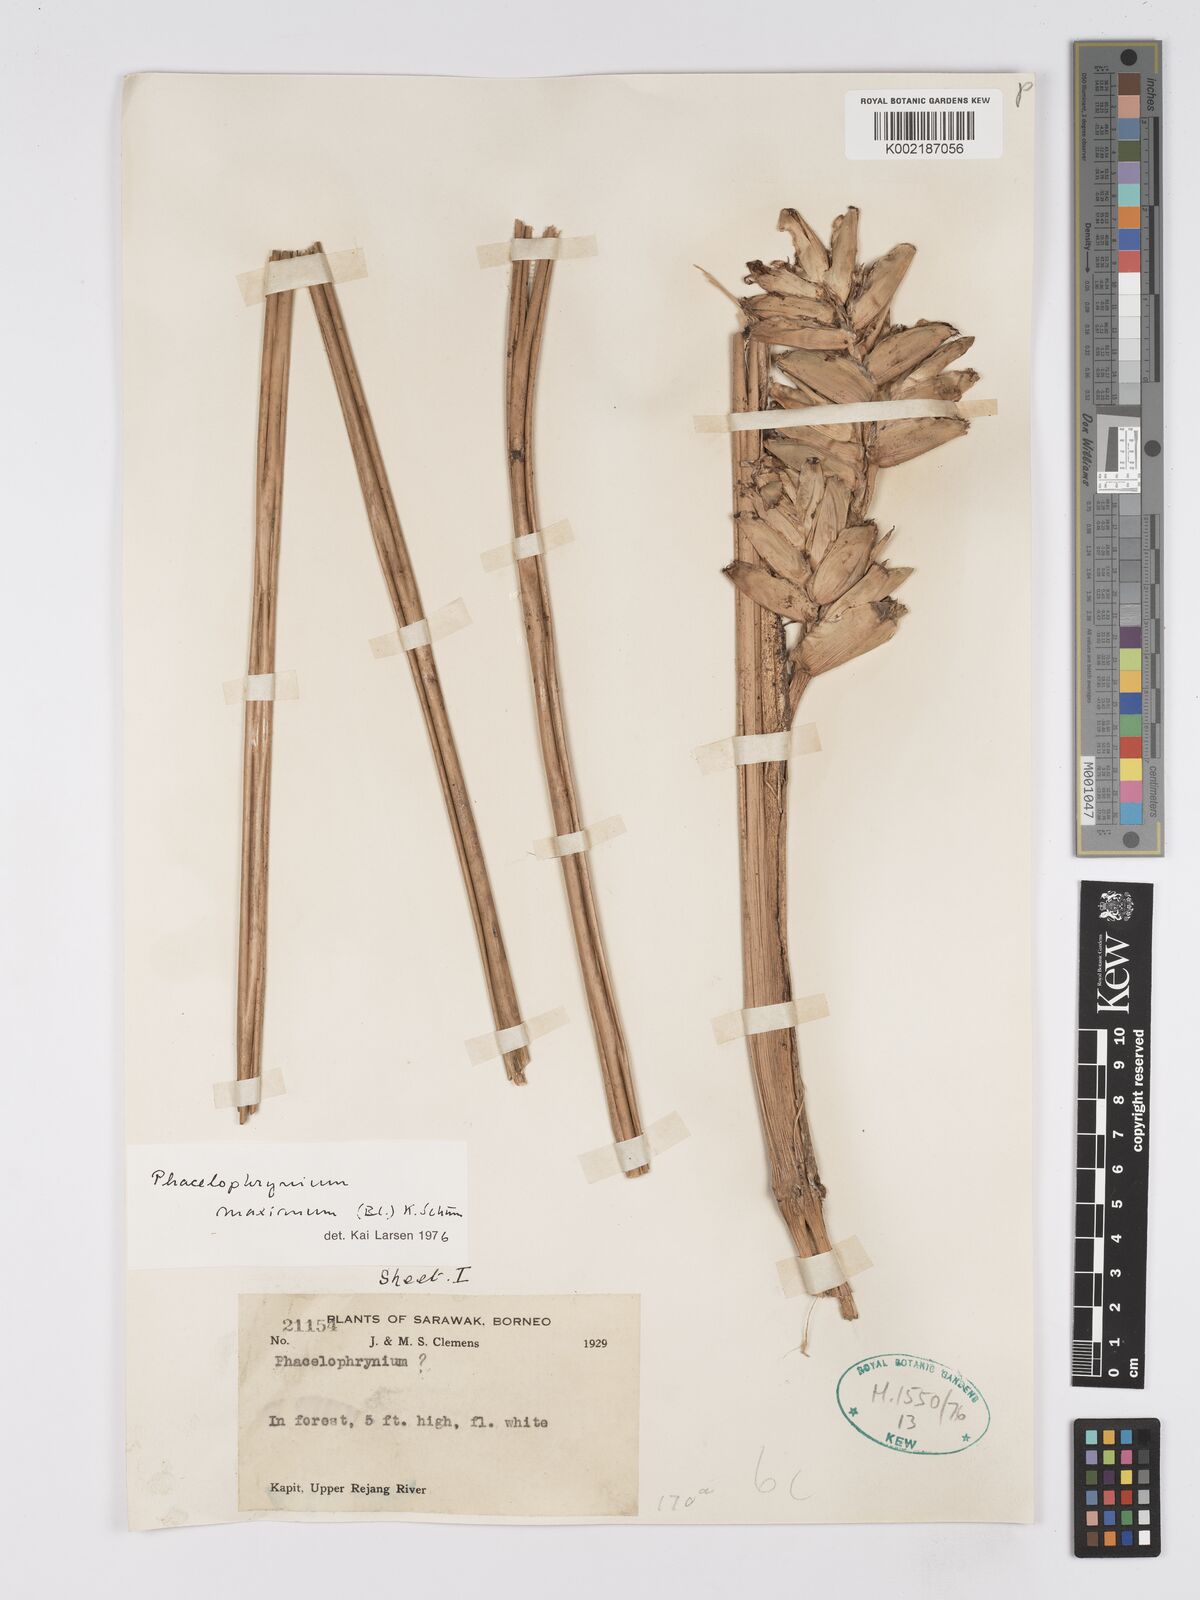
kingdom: Plantae
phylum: Tracheophyta
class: Liliopsida
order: Zingiberales
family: Marantaceae
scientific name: Marantaceae
